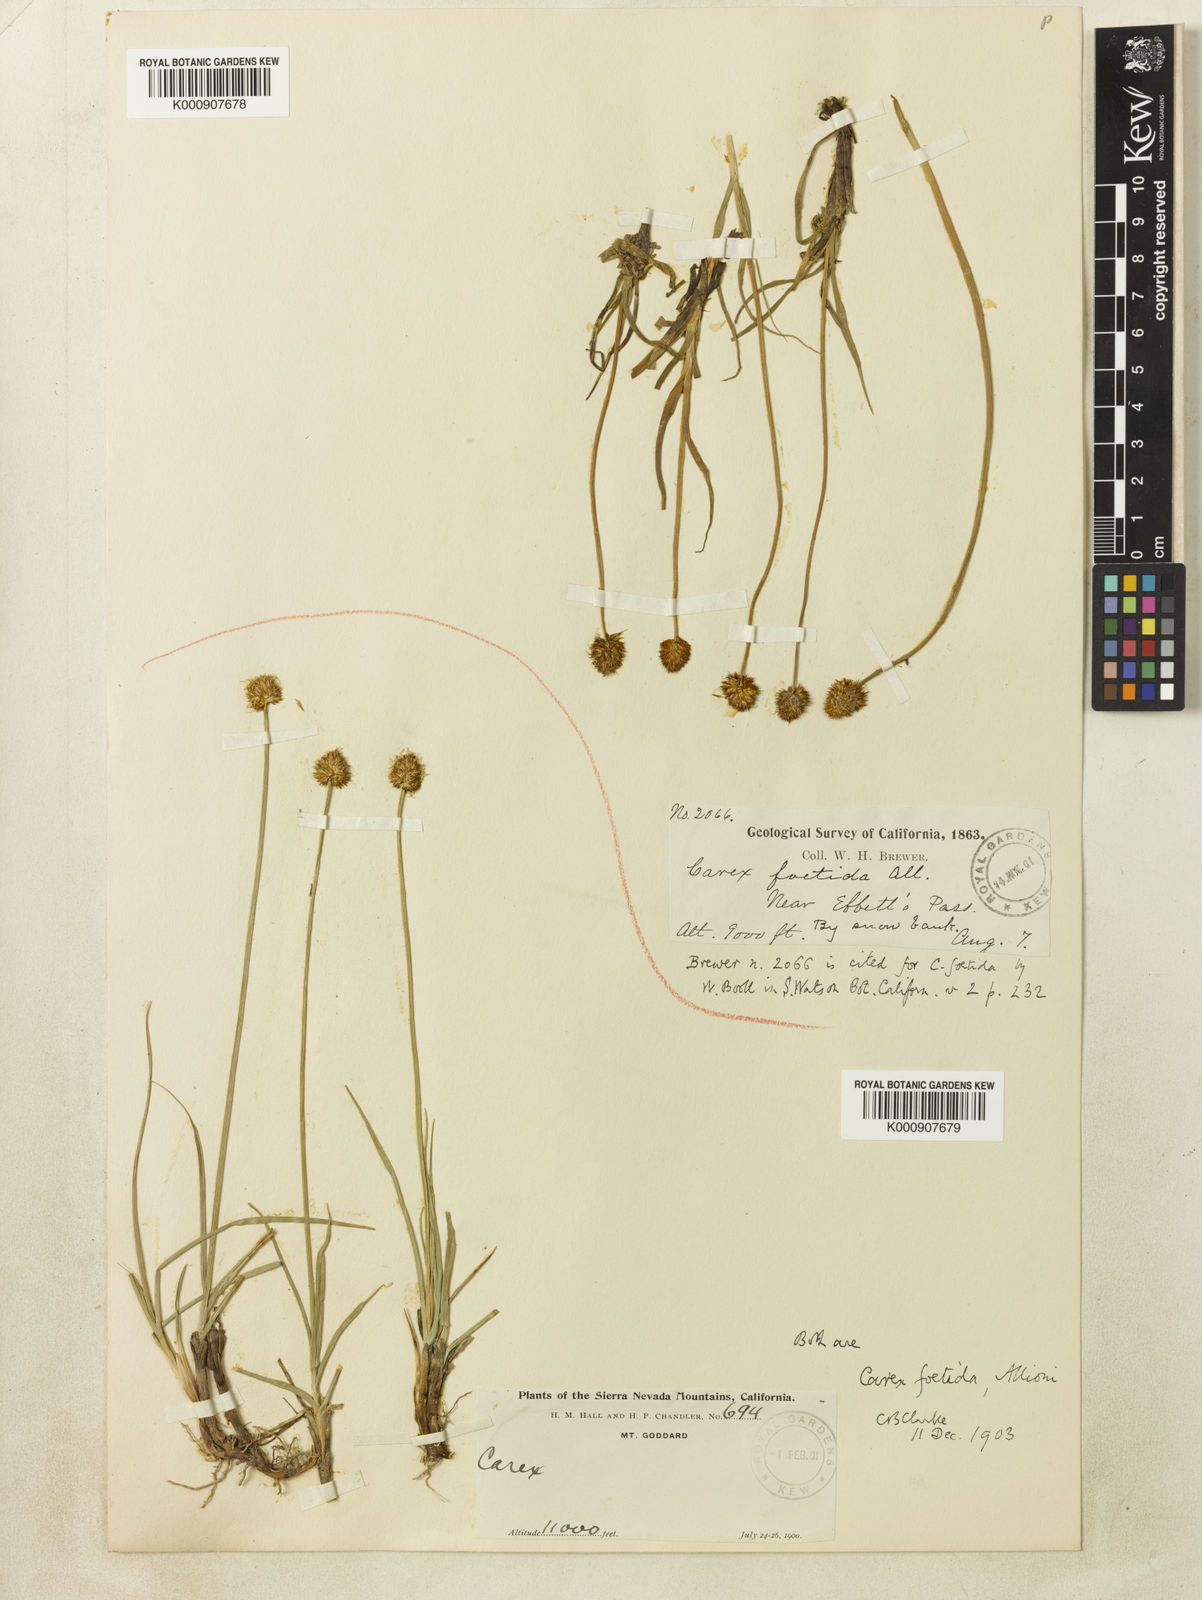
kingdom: Plantae
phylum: Tracheophyta
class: Liliopsida
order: Poales
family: Cyperaceae
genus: Carex
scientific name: Carex vernacula
